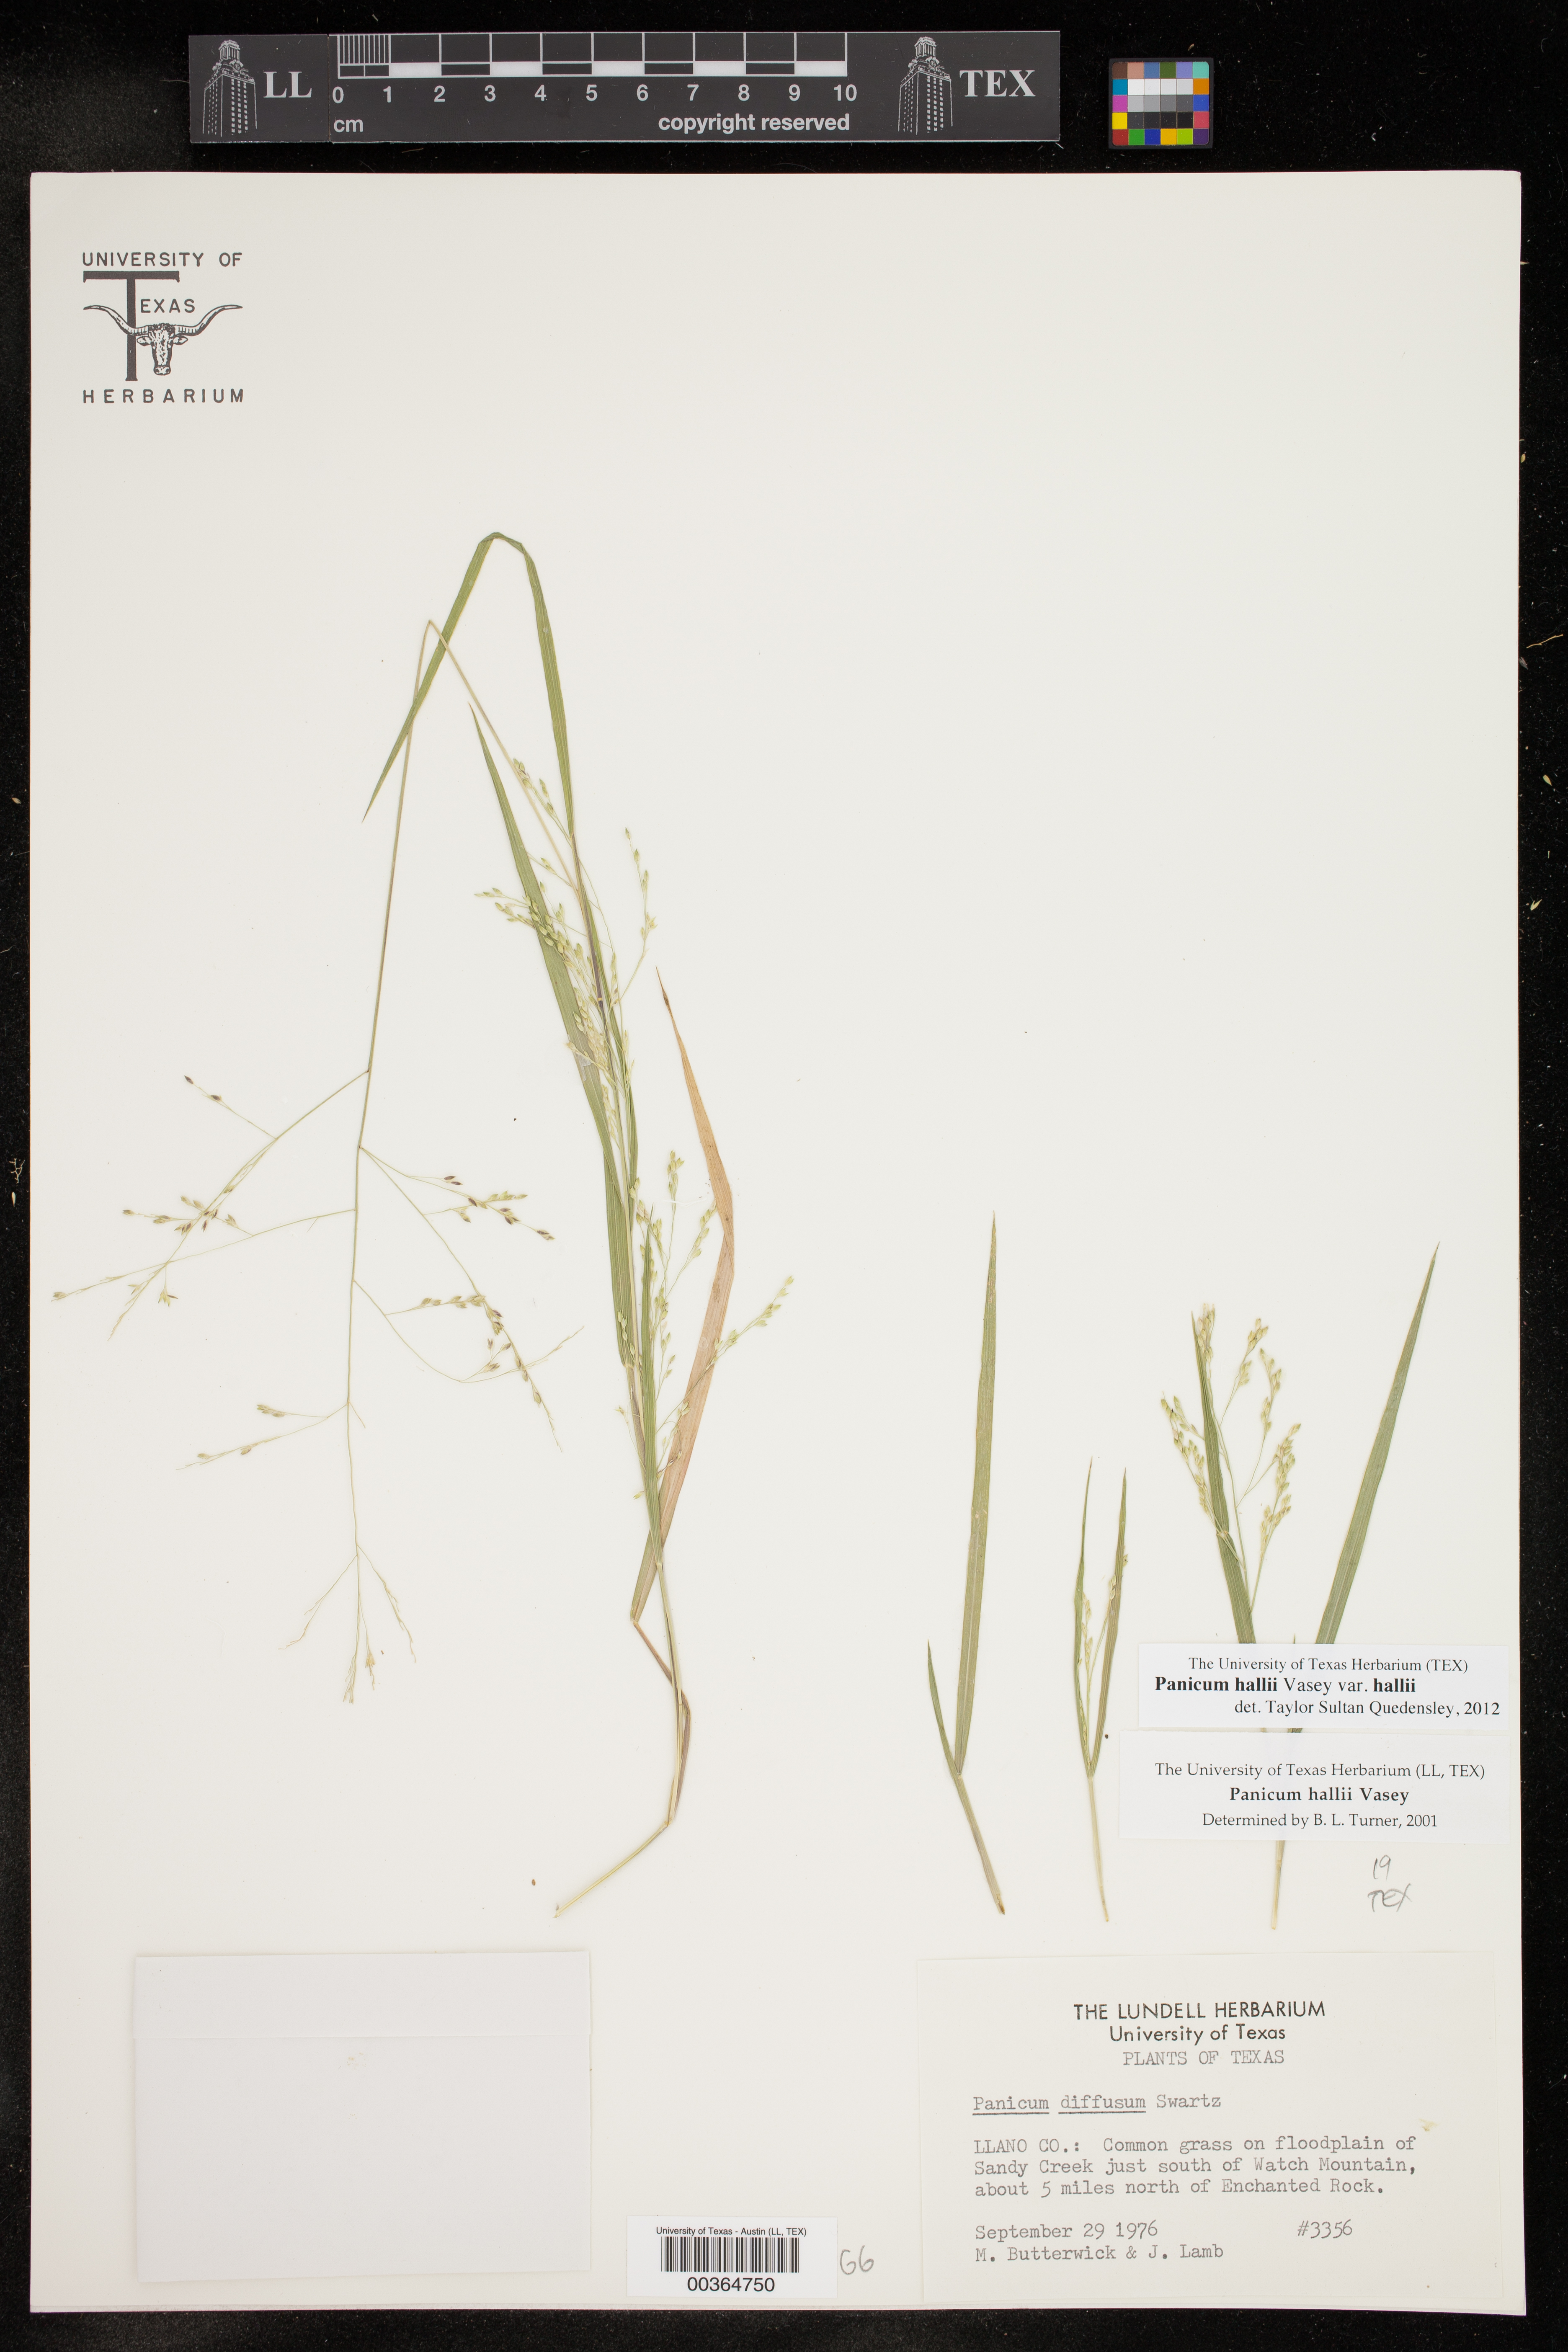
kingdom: Plantae
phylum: Tracheophyta
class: Liliopsida
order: Poales
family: Poaceae
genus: Panicum
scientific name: Panicum hallii
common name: Hall's witchgrass
